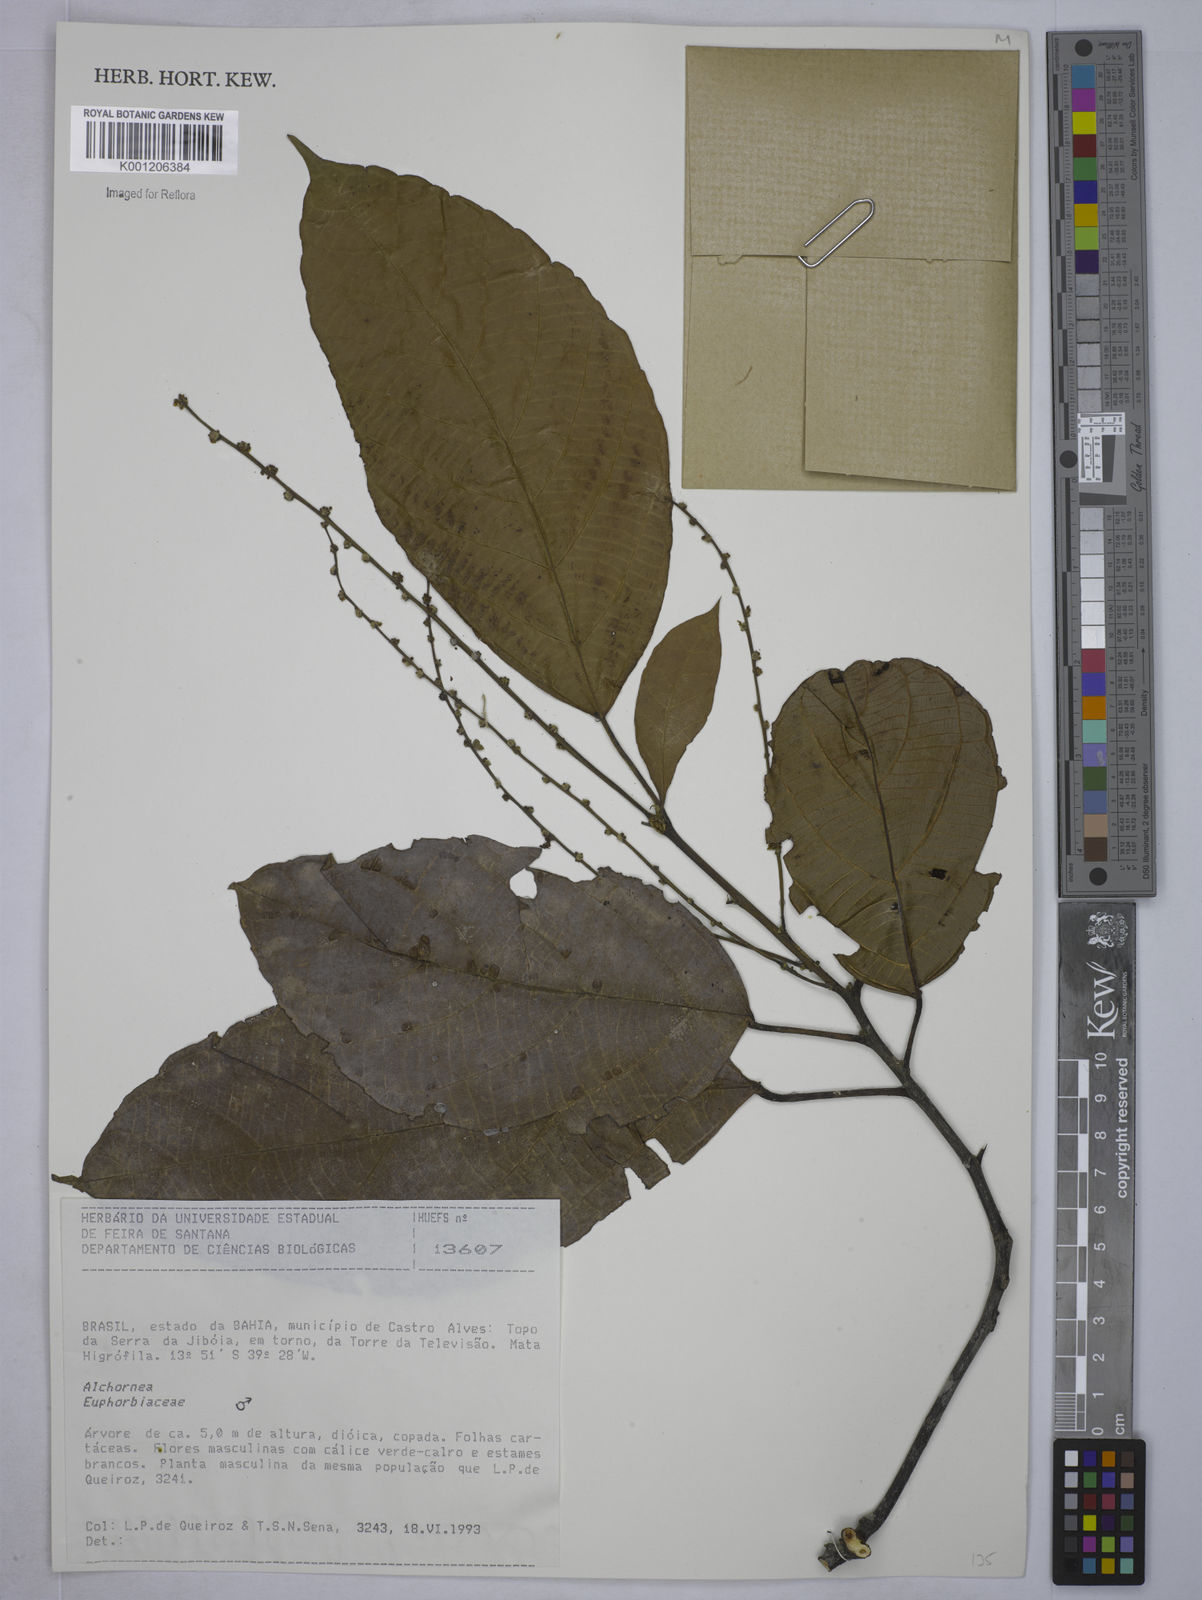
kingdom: Plantae
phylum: Tracheophyta
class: Magnoliopsida
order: Malpighiales
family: Euphorbiaceae
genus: Alchornea
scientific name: Alchornea
